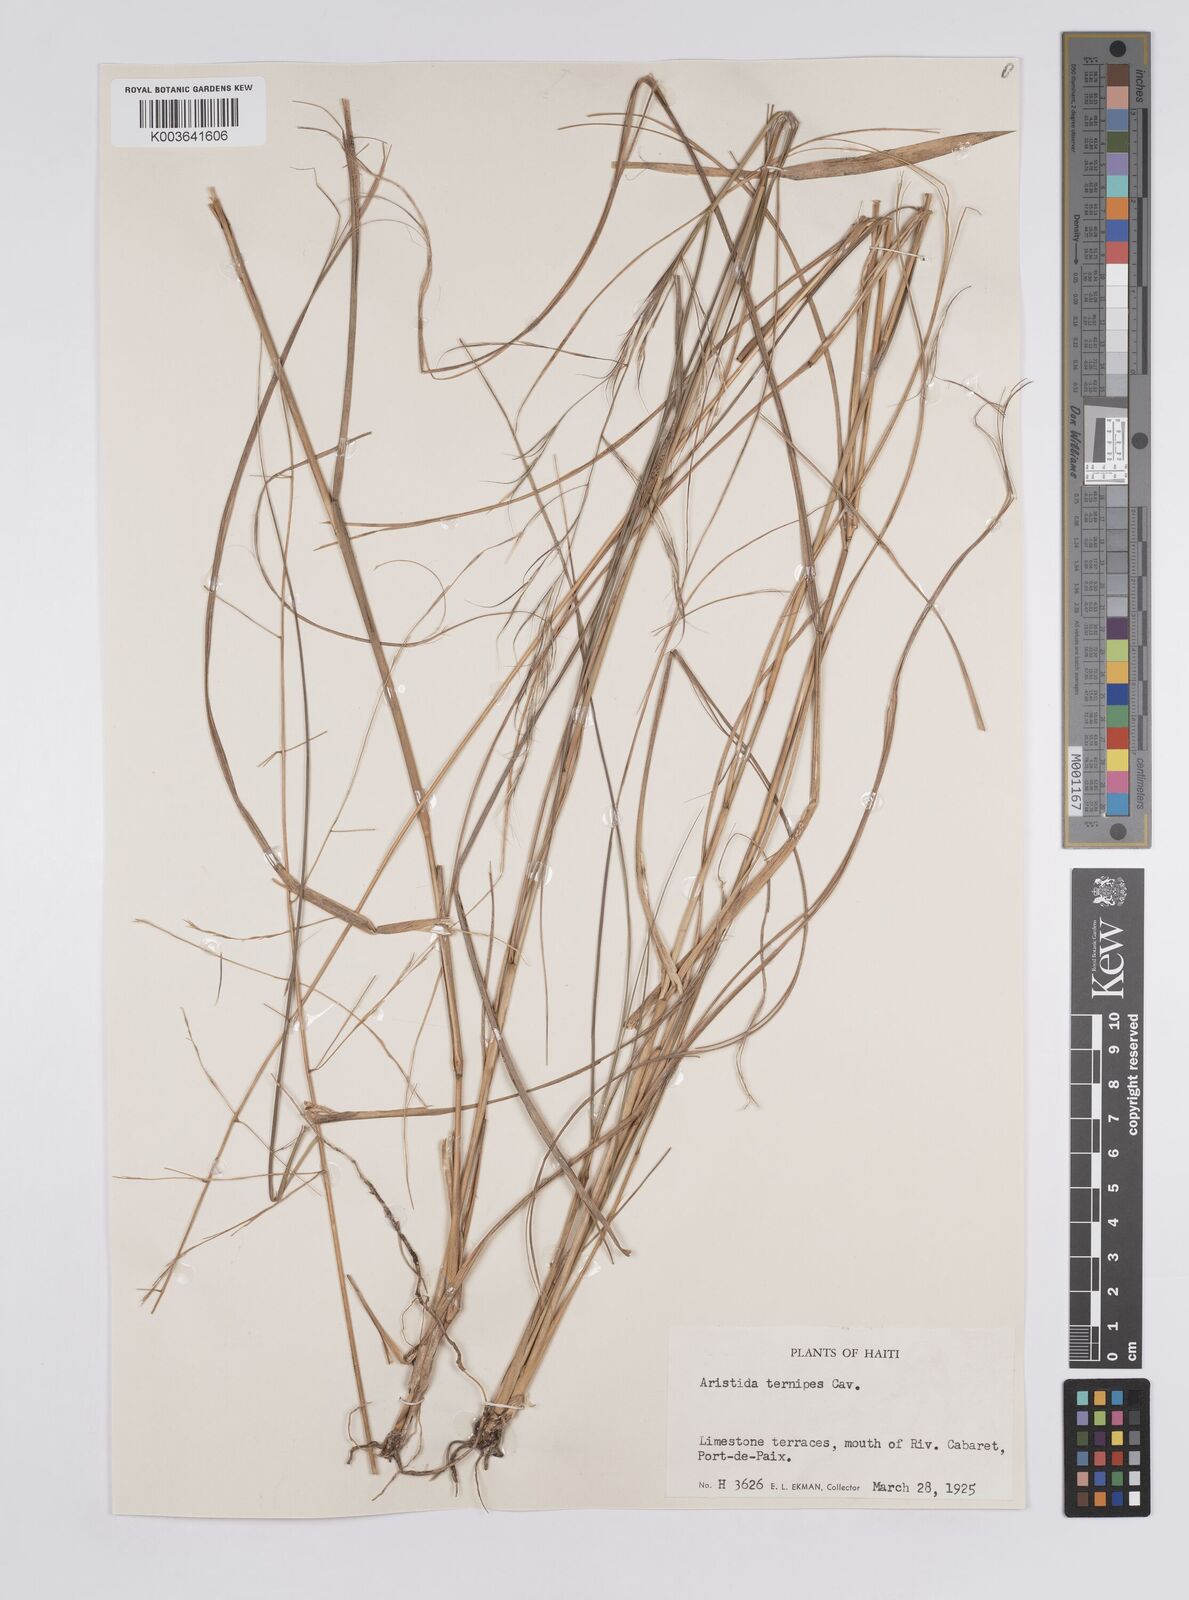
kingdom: Plantae
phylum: Tracheophyta
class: Liliopsida
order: Poales
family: Poaceae
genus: Aristida
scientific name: Aristida ternipes
